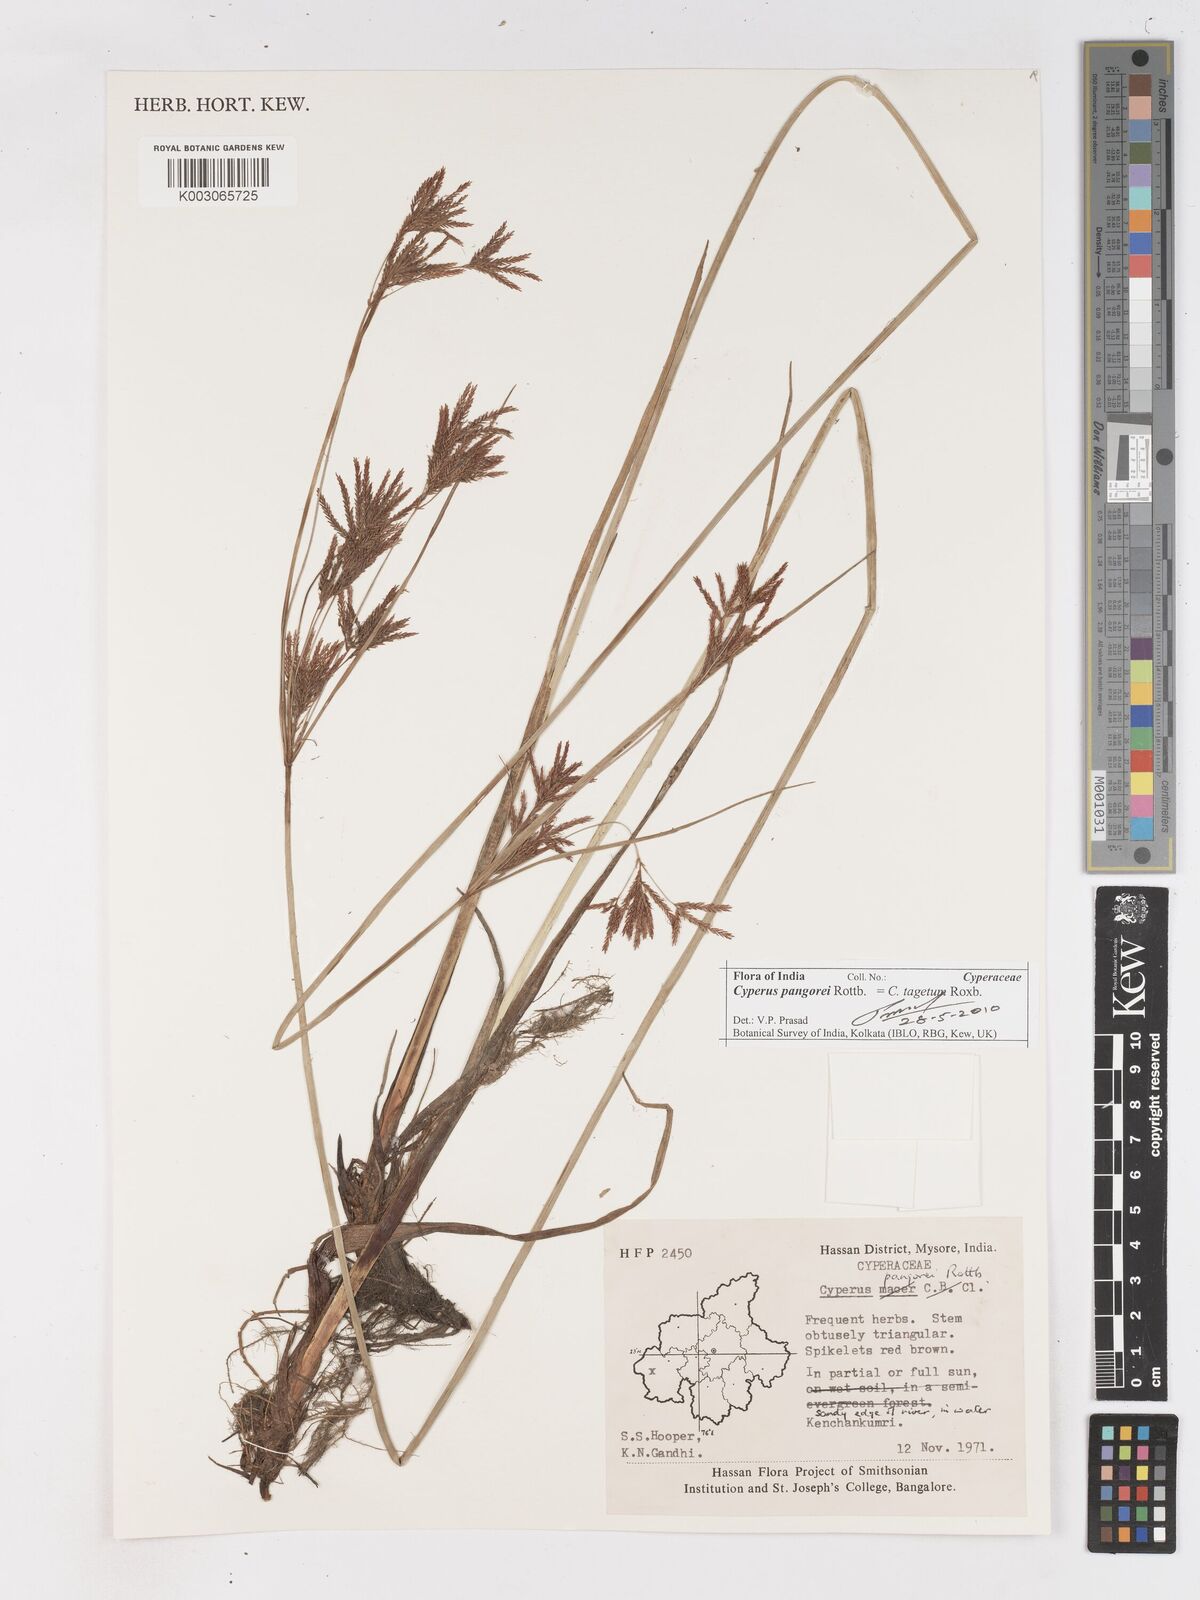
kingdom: Plantae
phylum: Tracheophyta
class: Liliopsida
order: Poales
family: Cyperaceae
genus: Cyperus
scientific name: Cyperus pangorei
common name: Mat sedge
